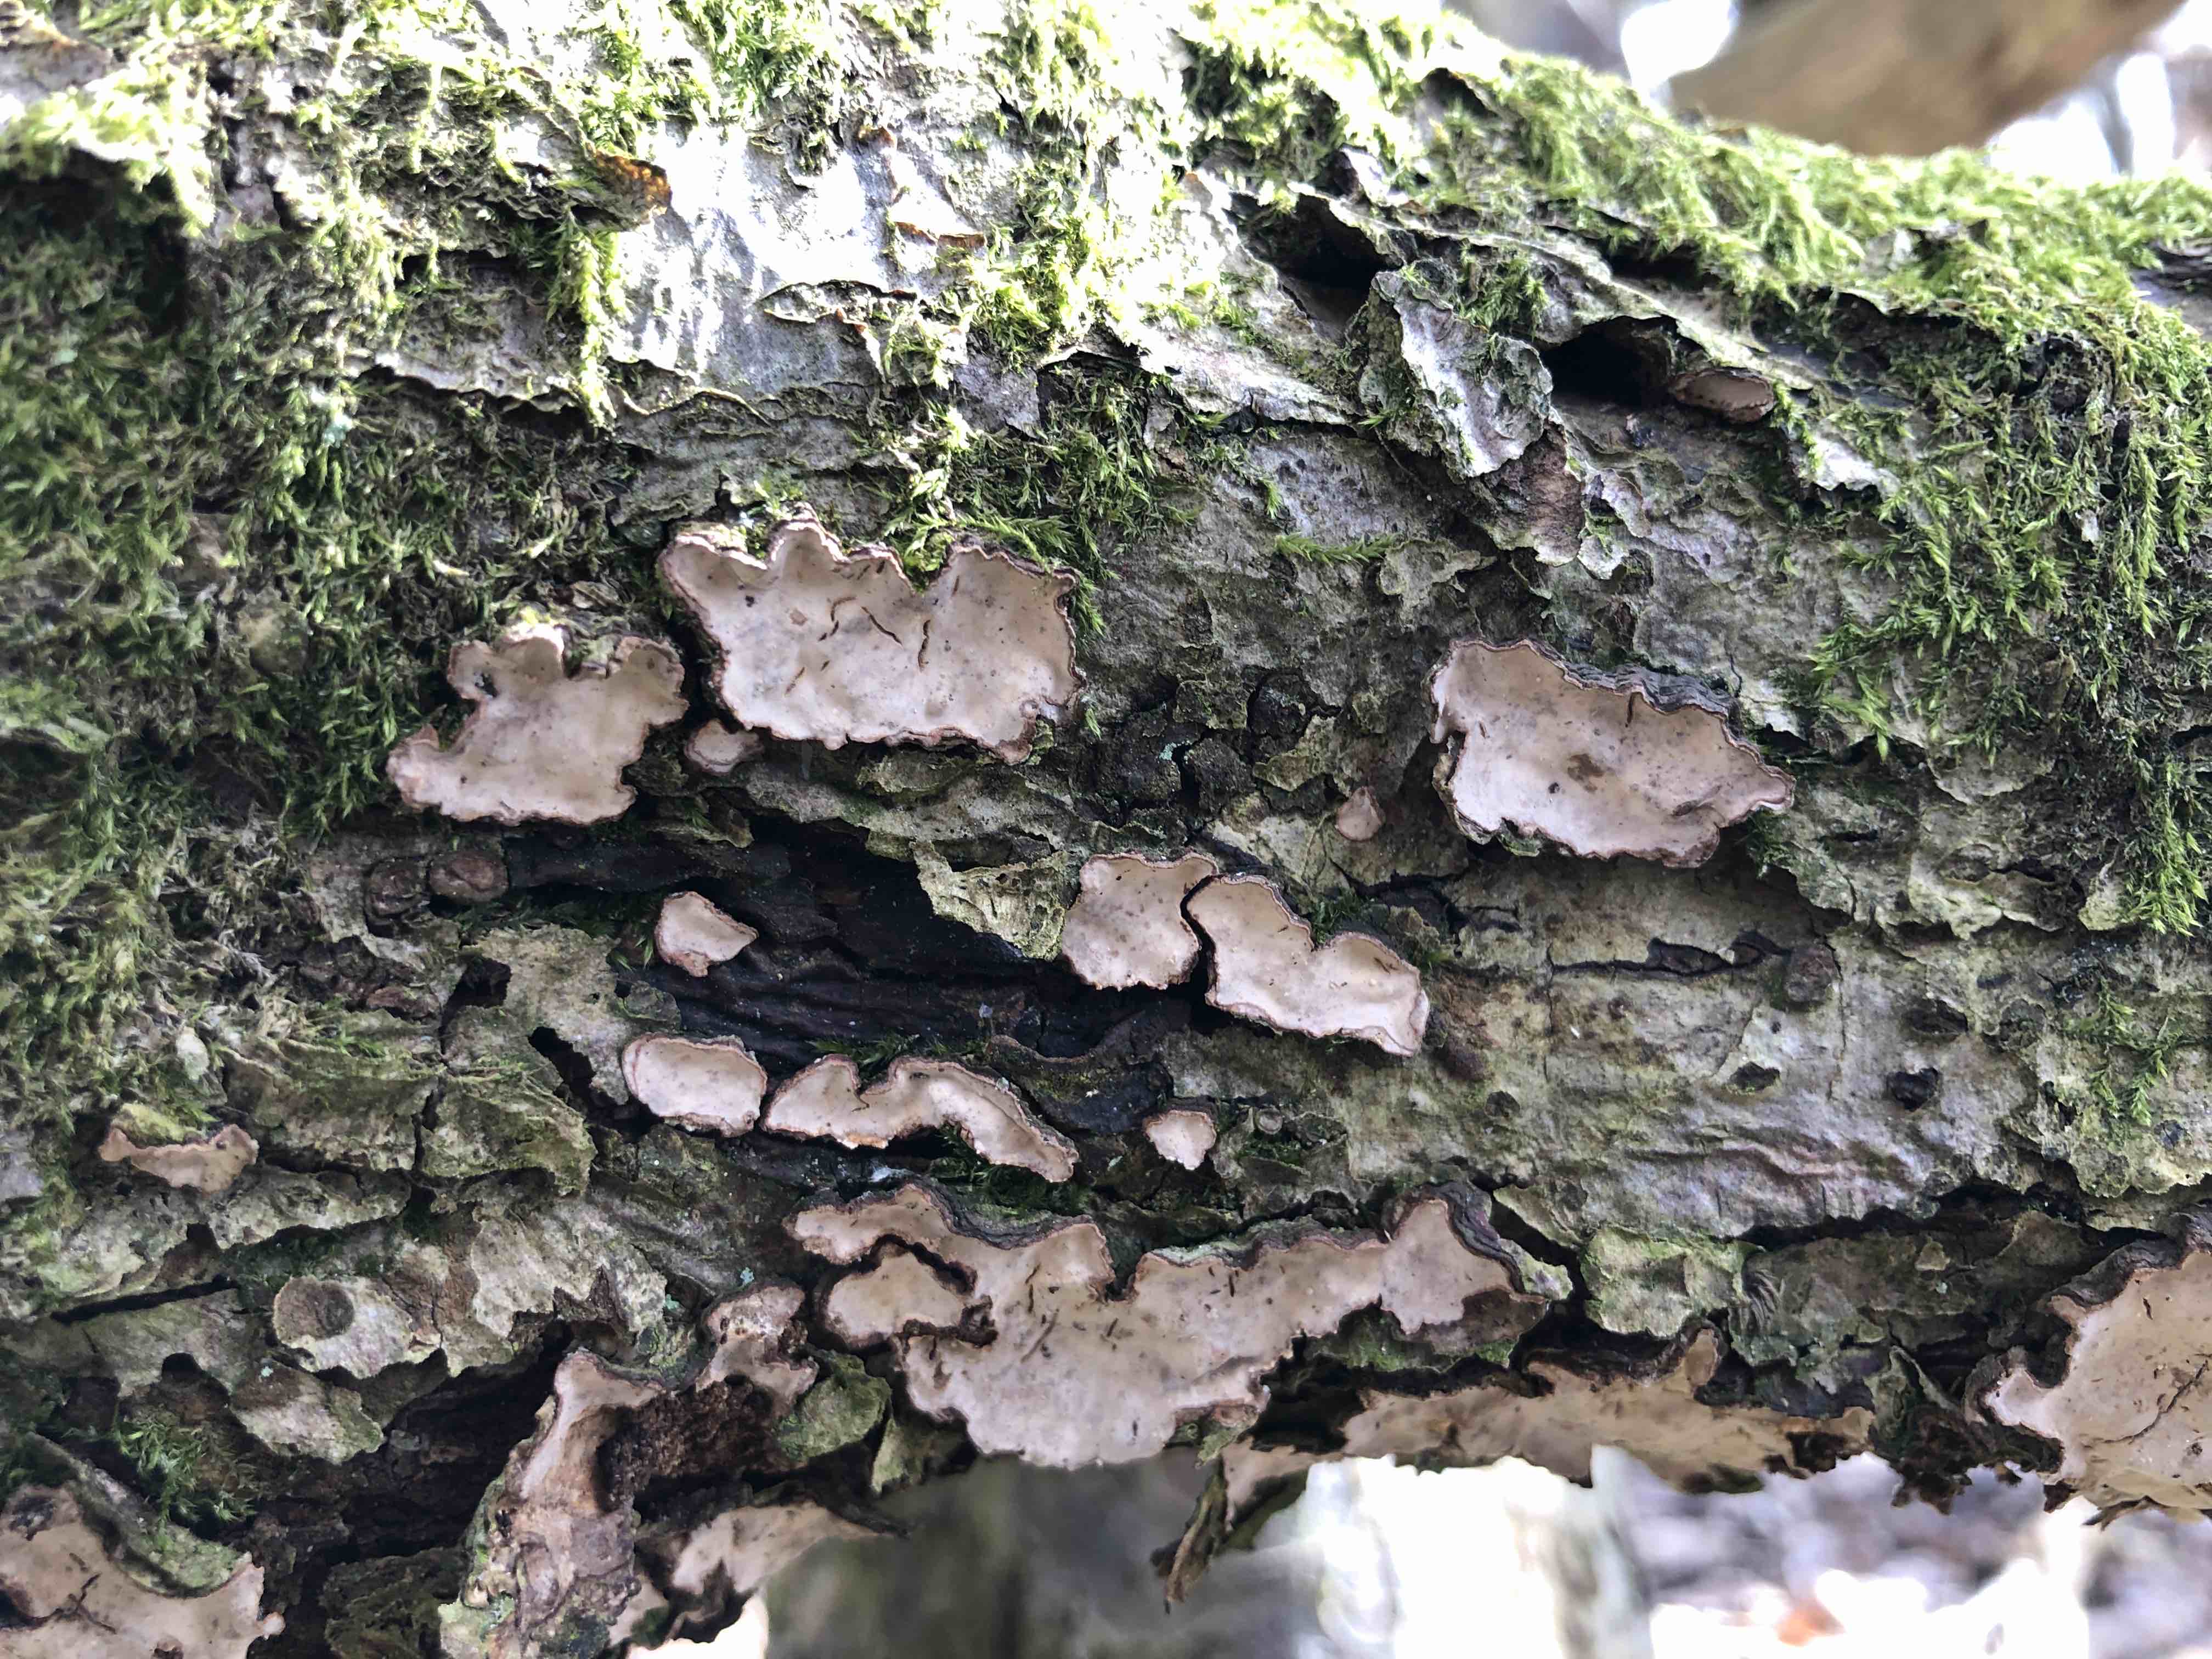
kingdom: Fungi
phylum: Basidiomycota
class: Agaricomycetes
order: Russulales
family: Stereaceae
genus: Stereum
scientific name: Stereum rugosum
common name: rynket lædersvamp
